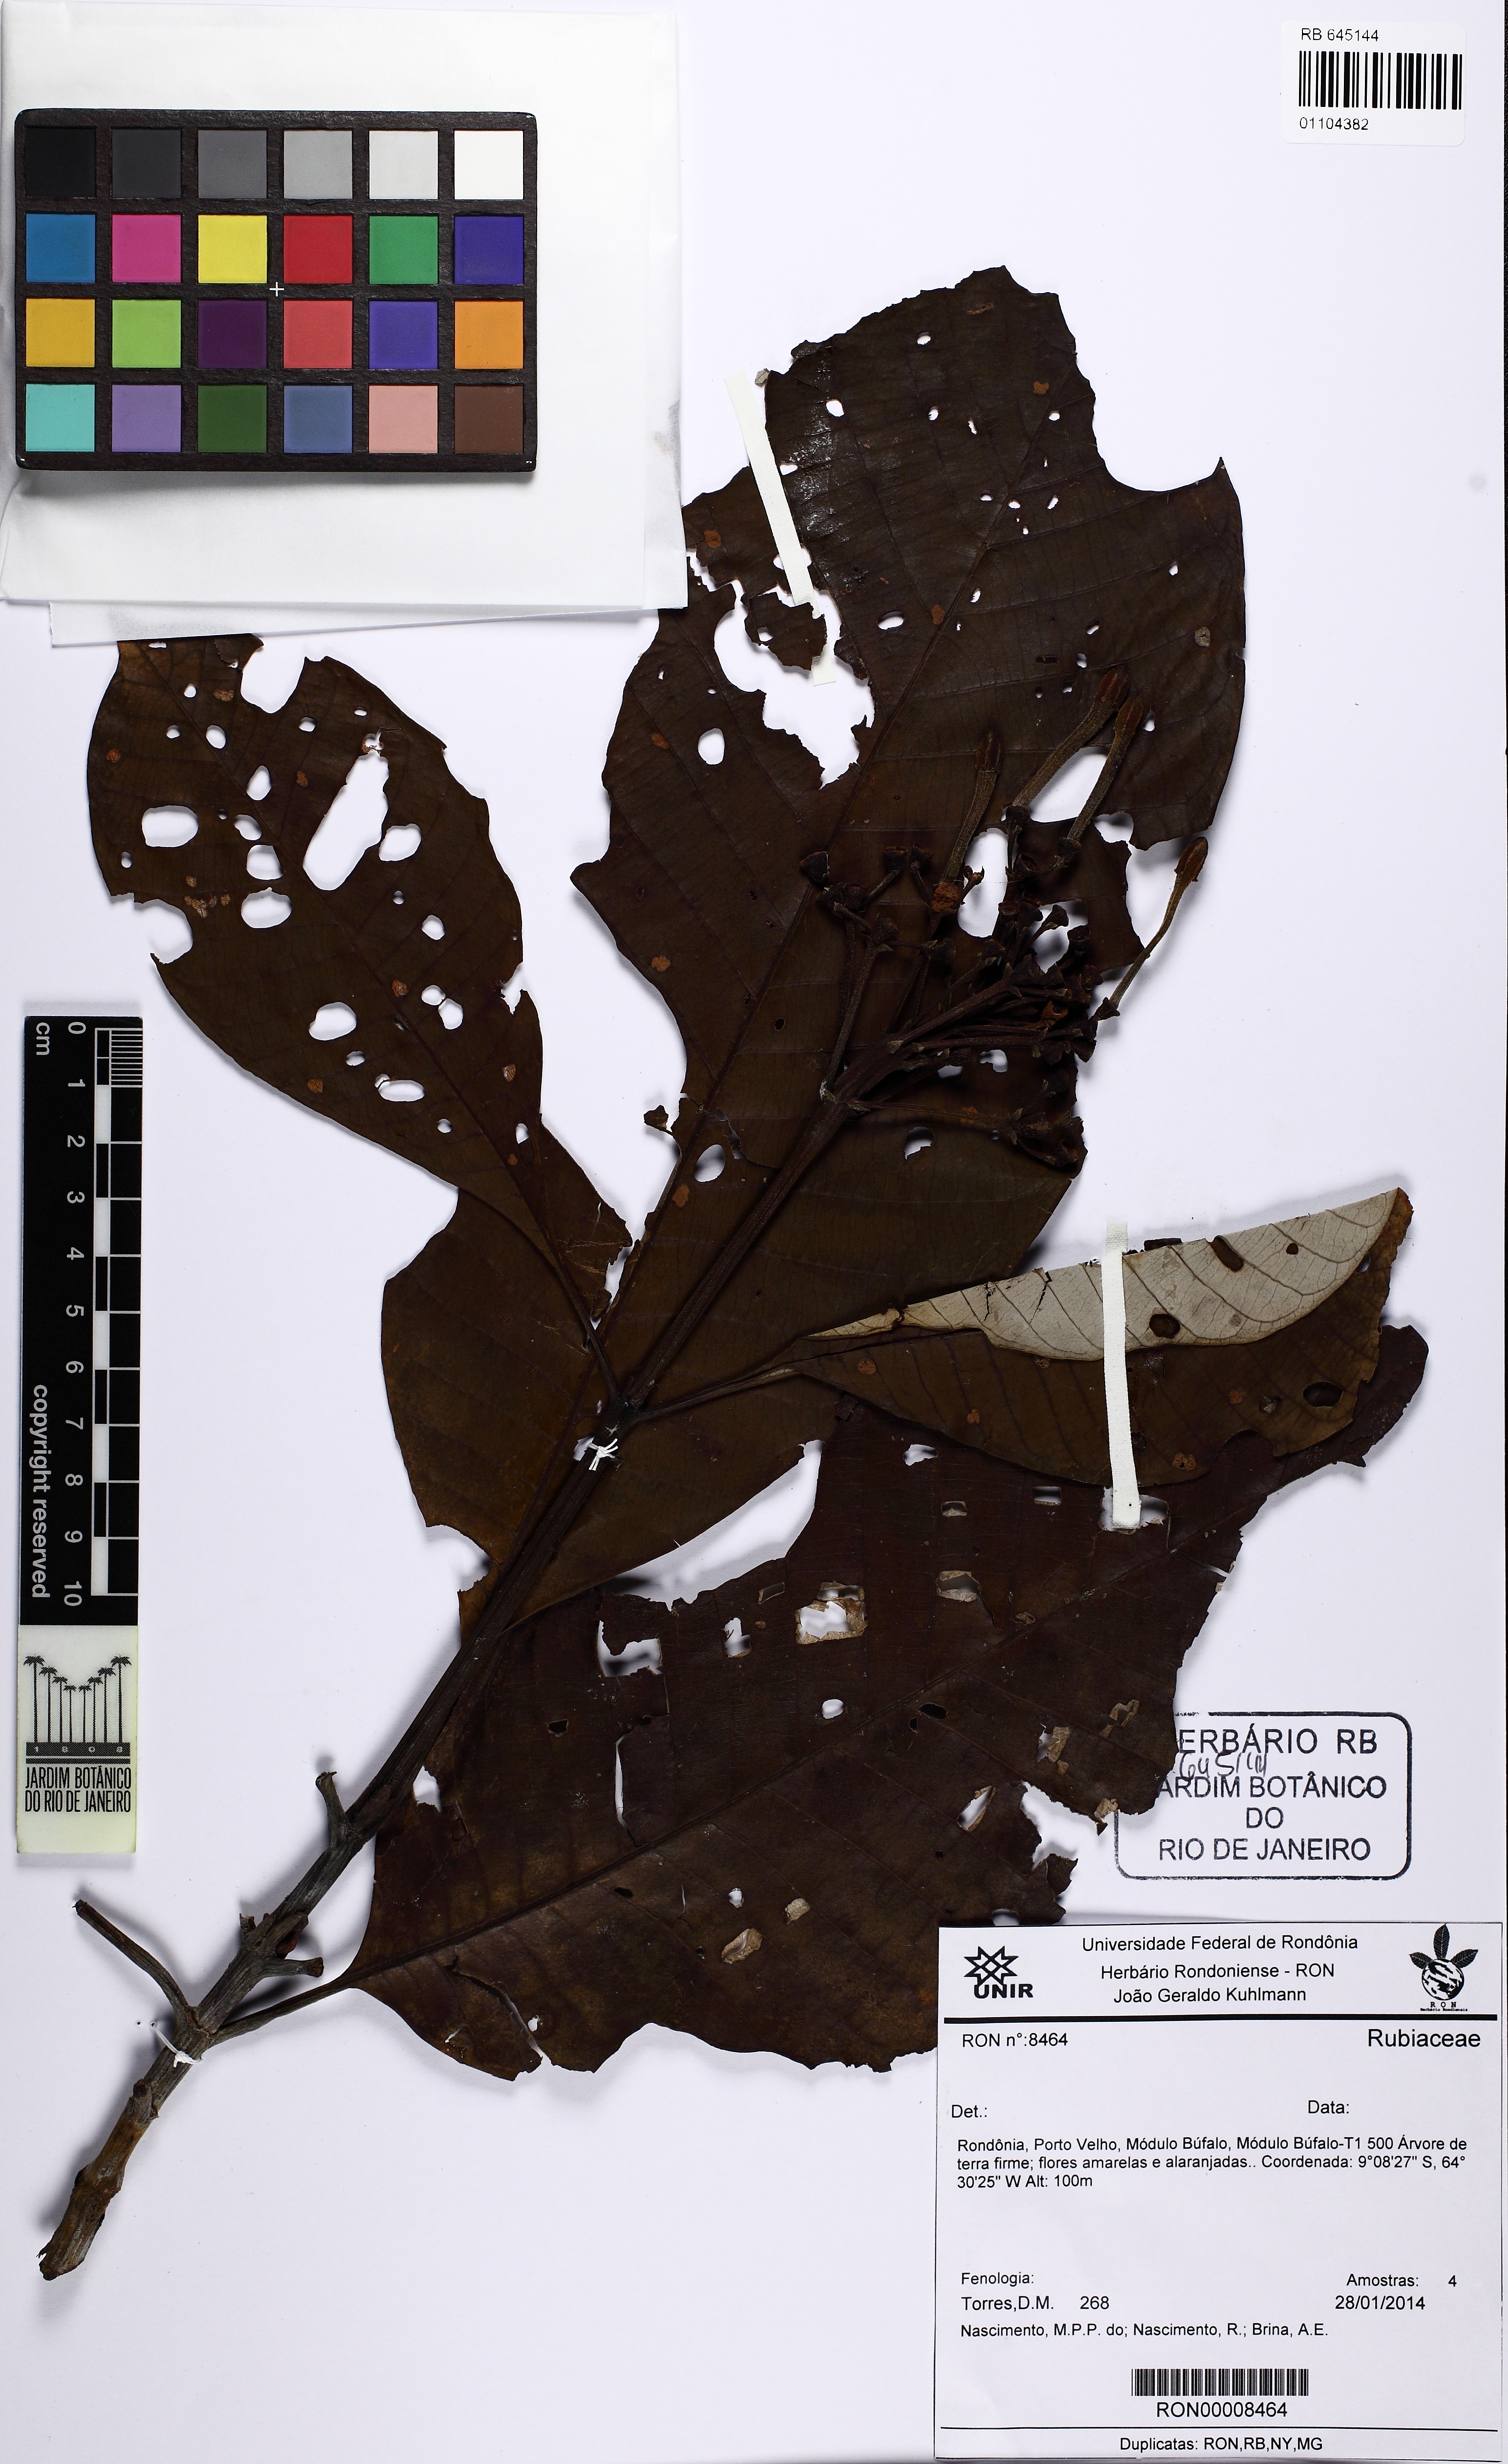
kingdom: Plantae
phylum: Tracheophyta
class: Magnoliopsida
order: Gentianales
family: Rubiaceae
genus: Isertia
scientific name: Isertia
